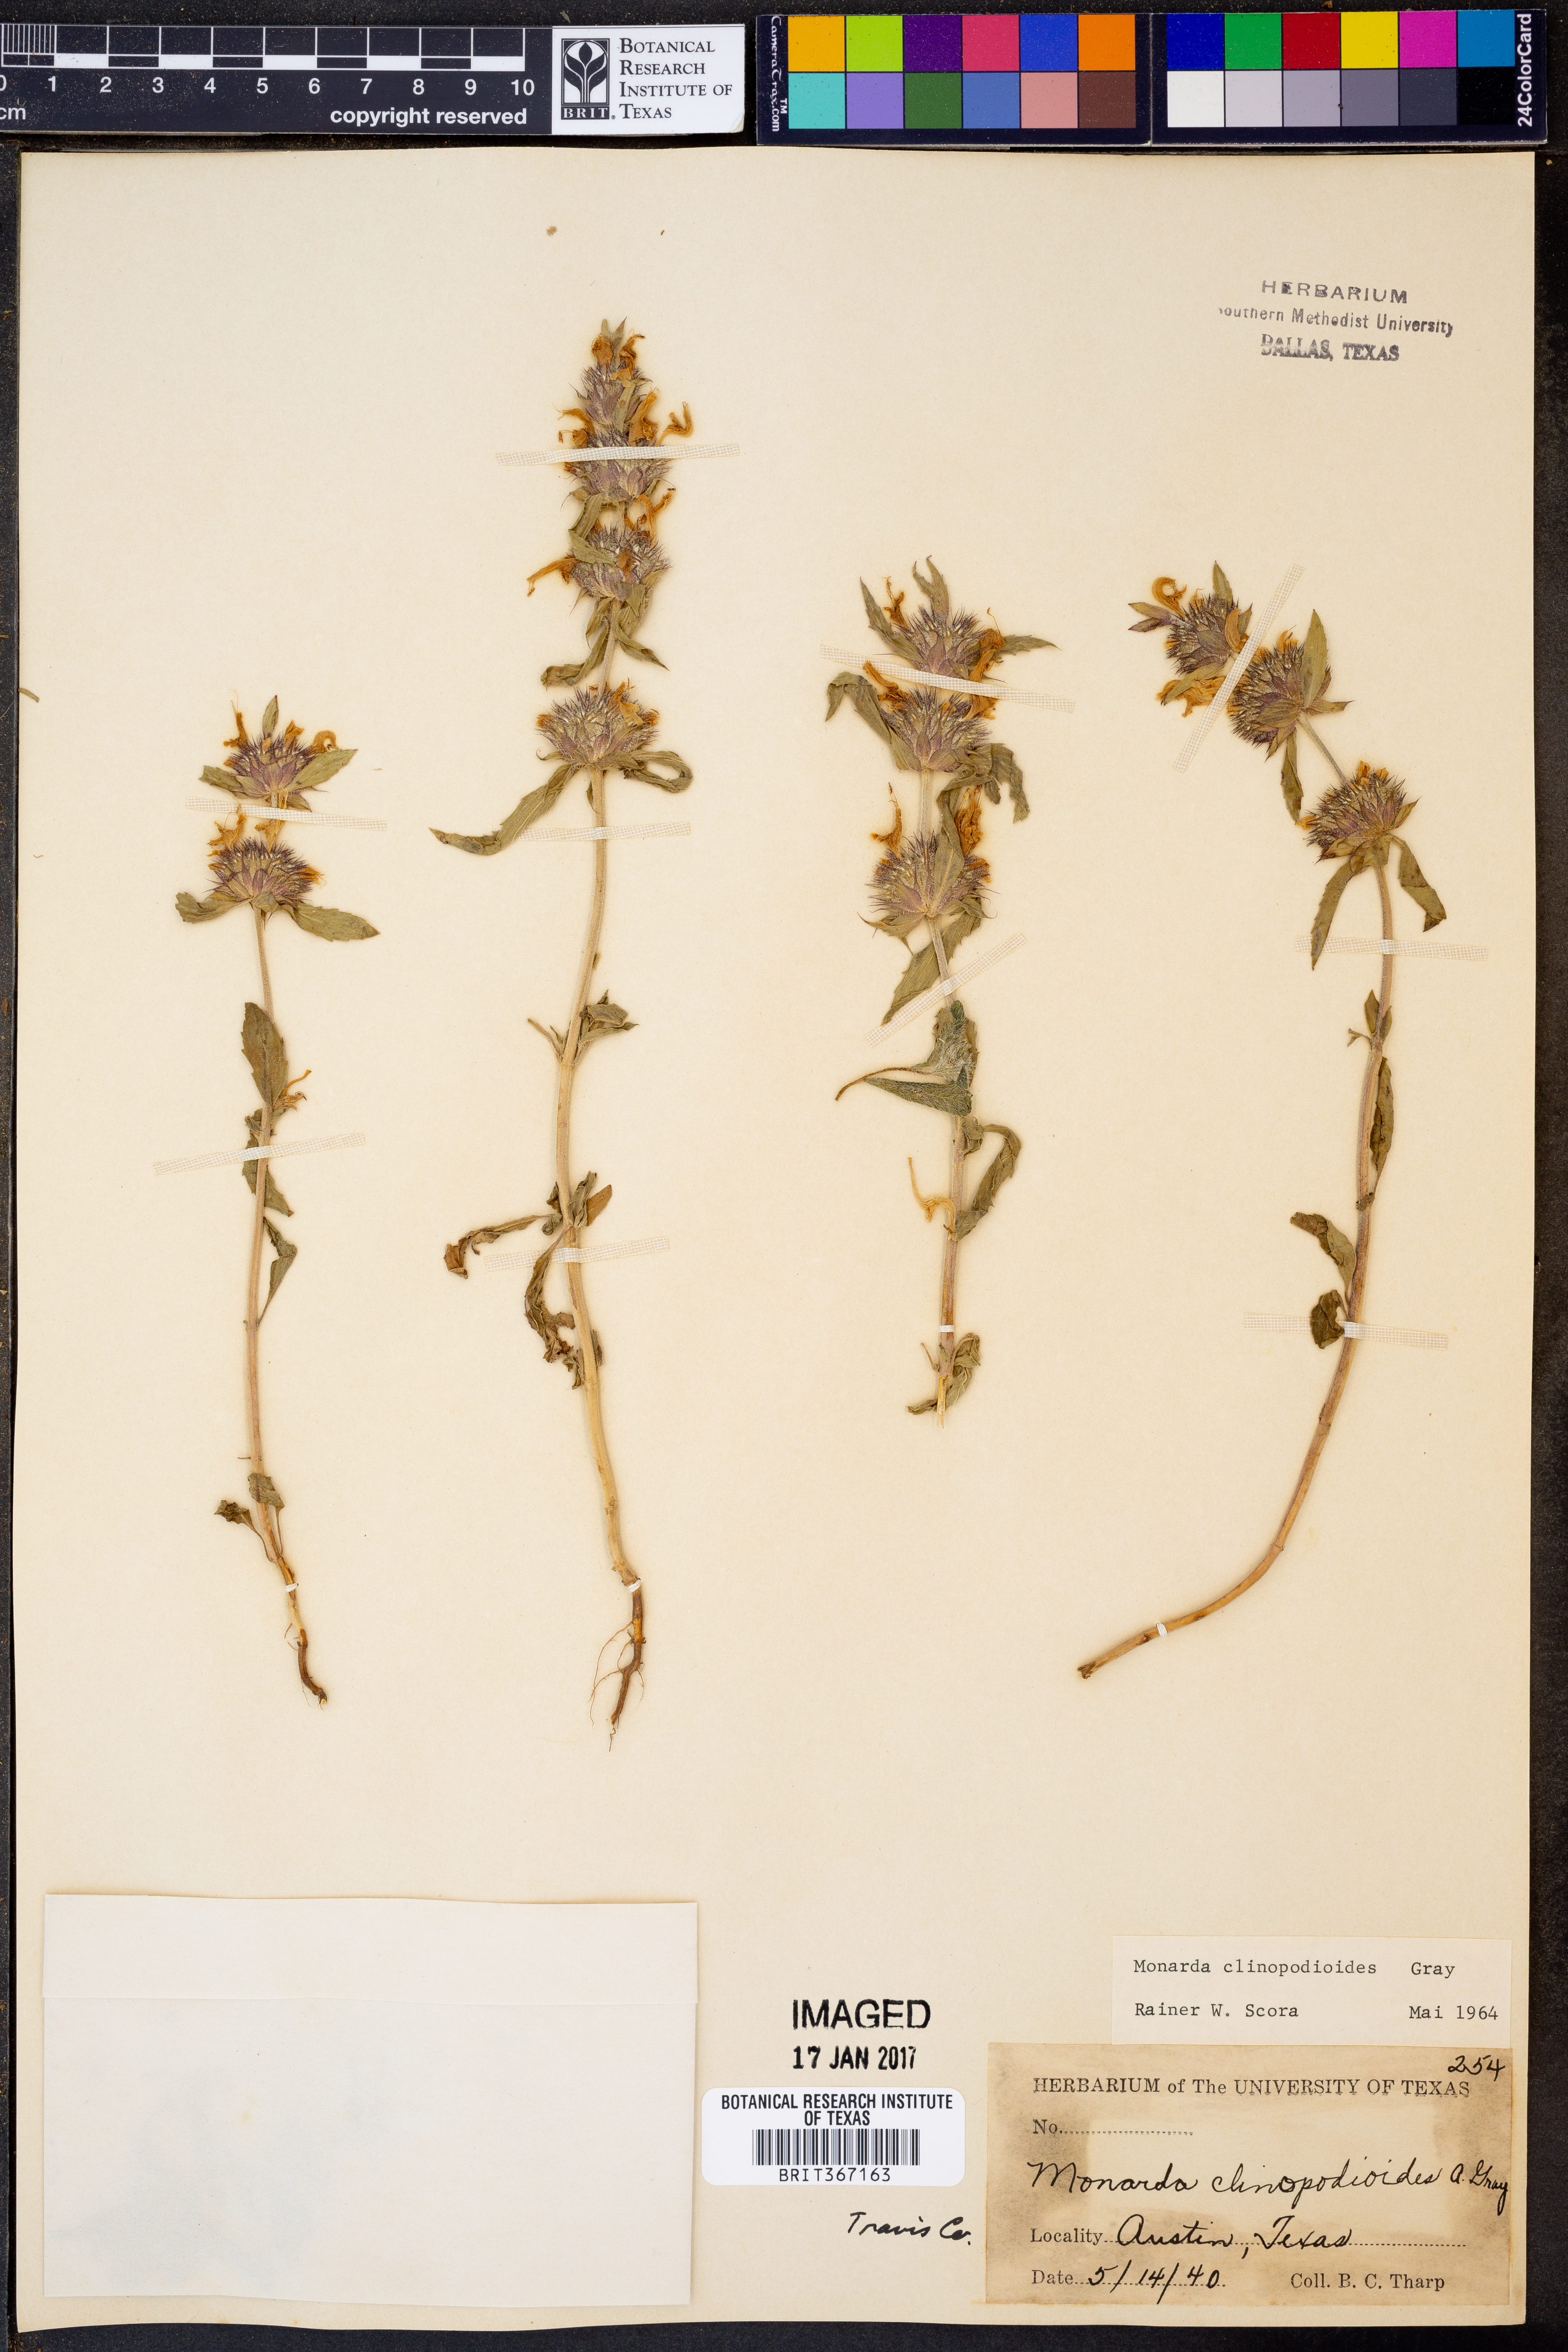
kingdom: Plantae
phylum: Tracheophyta
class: Magnoliopsida
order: Lamiales
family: Lamiaceae
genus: Monarda
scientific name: Monarda clinopodioides
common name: Basil beebalm
